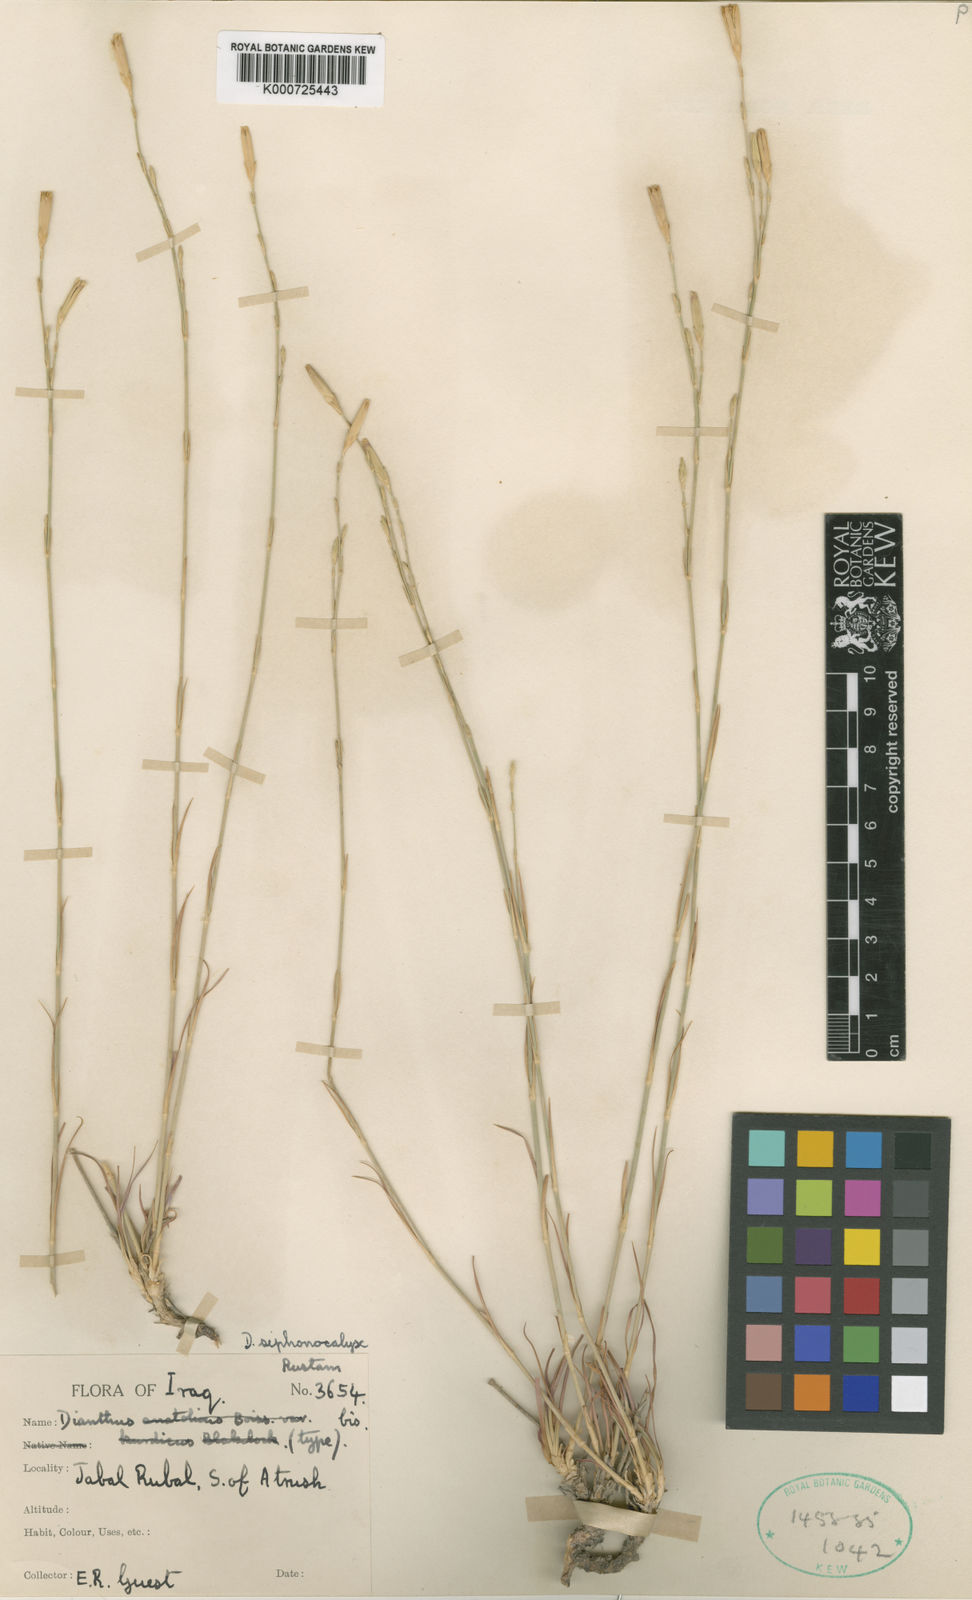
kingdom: Plantae
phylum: Tracheophyta
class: Magnoliopsida
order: Caryophyllales
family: Caryophyllaceae
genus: Dianthus
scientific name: Dianthus siphonocalyx
